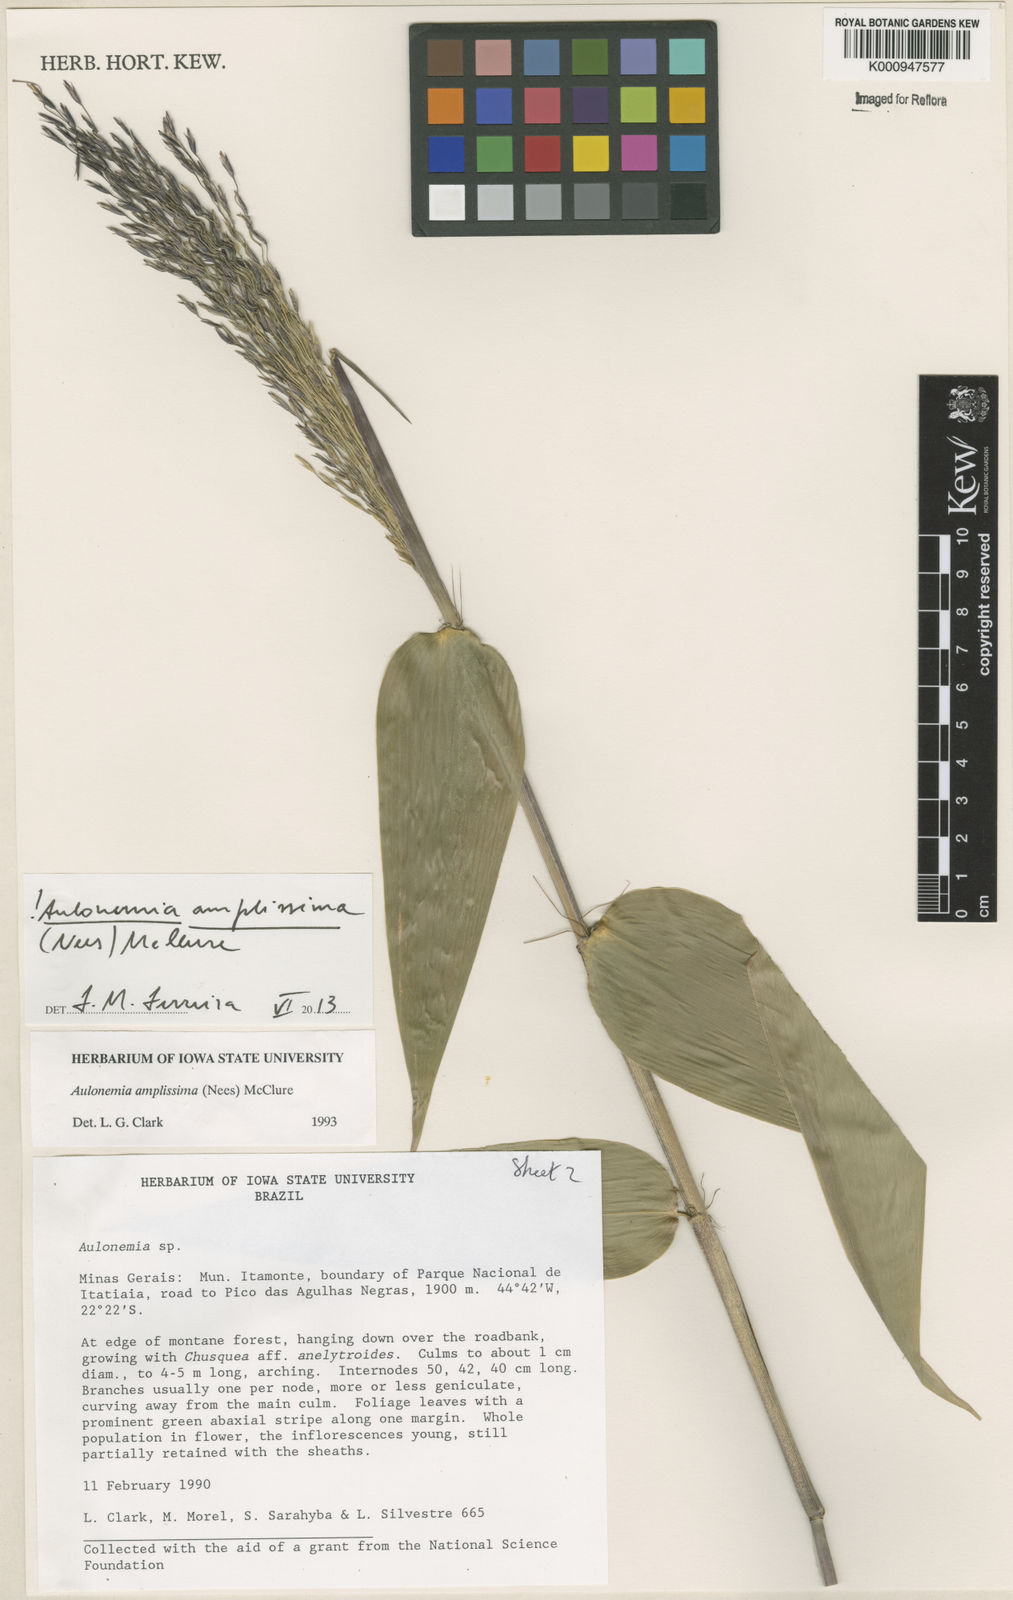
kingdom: Plantae
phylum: Tracheophyta
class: Liliopsida
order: Poales
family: Poaceae
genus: Aulonemia
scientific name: Aulonemia amplissima
